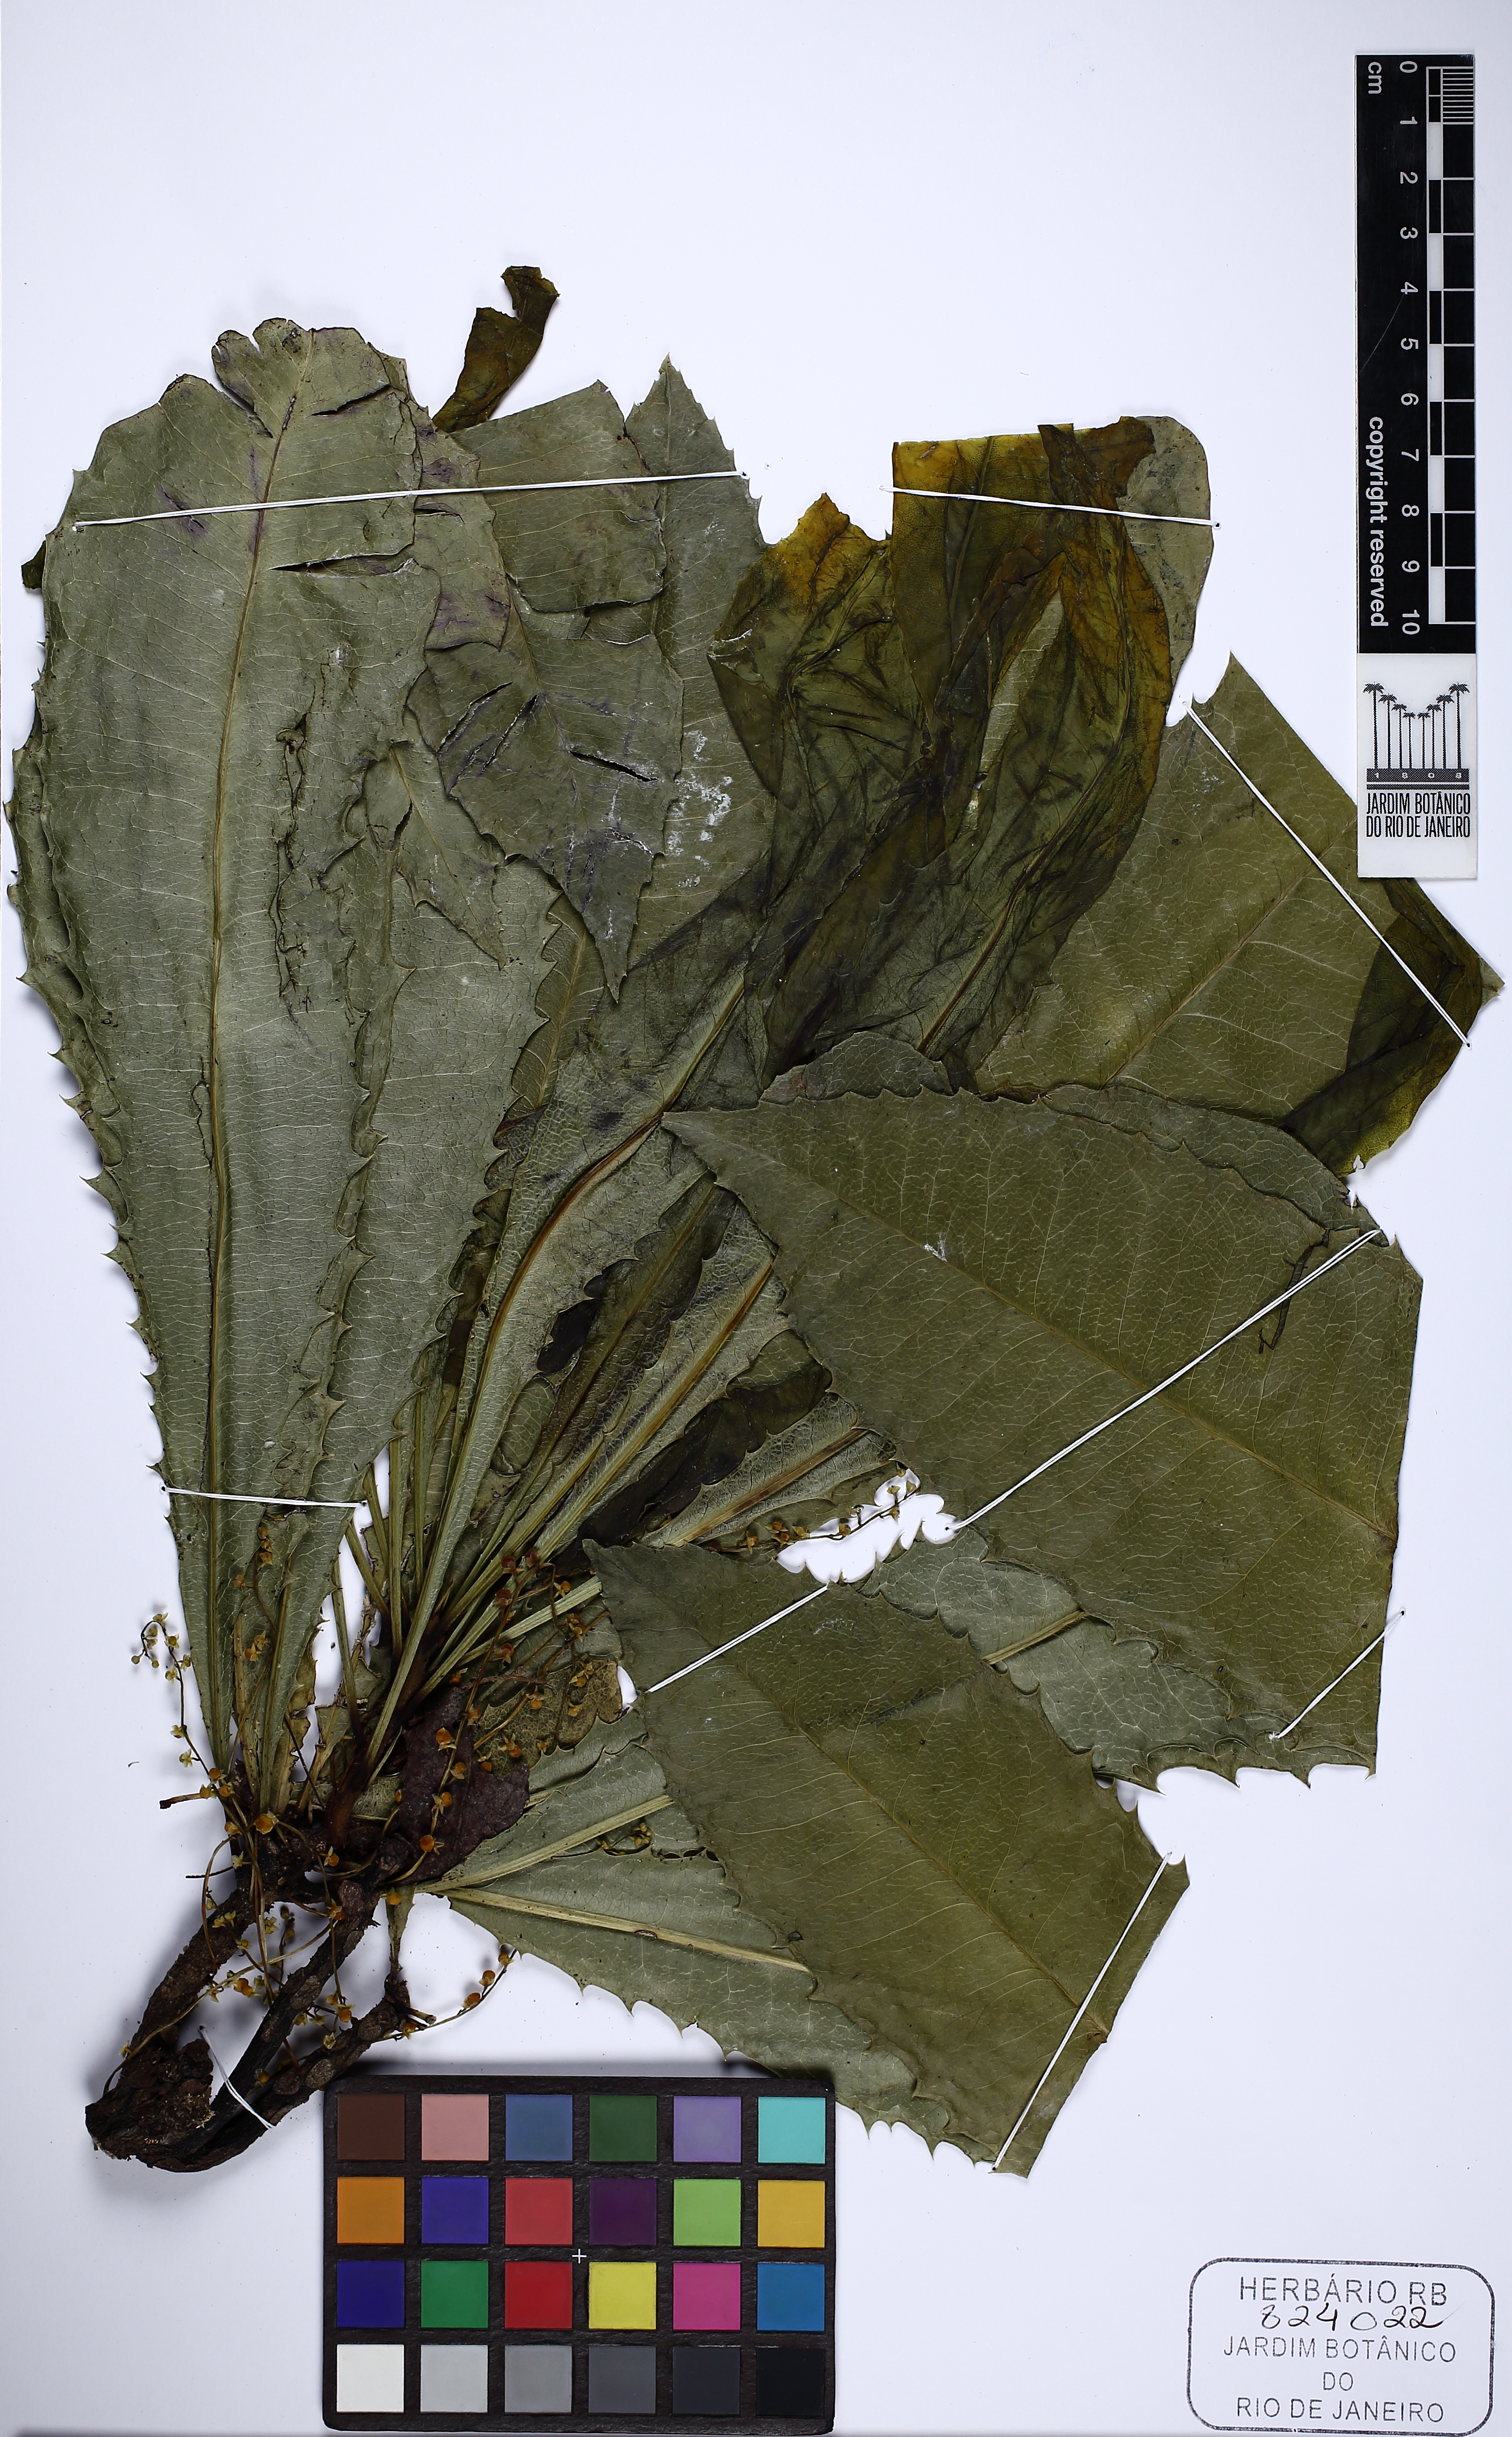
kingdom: Plantae
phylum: Tracheophyta
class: Magnoliopsida
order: Ericales
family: Primulaceae
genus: Clavija
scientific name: Clavija
